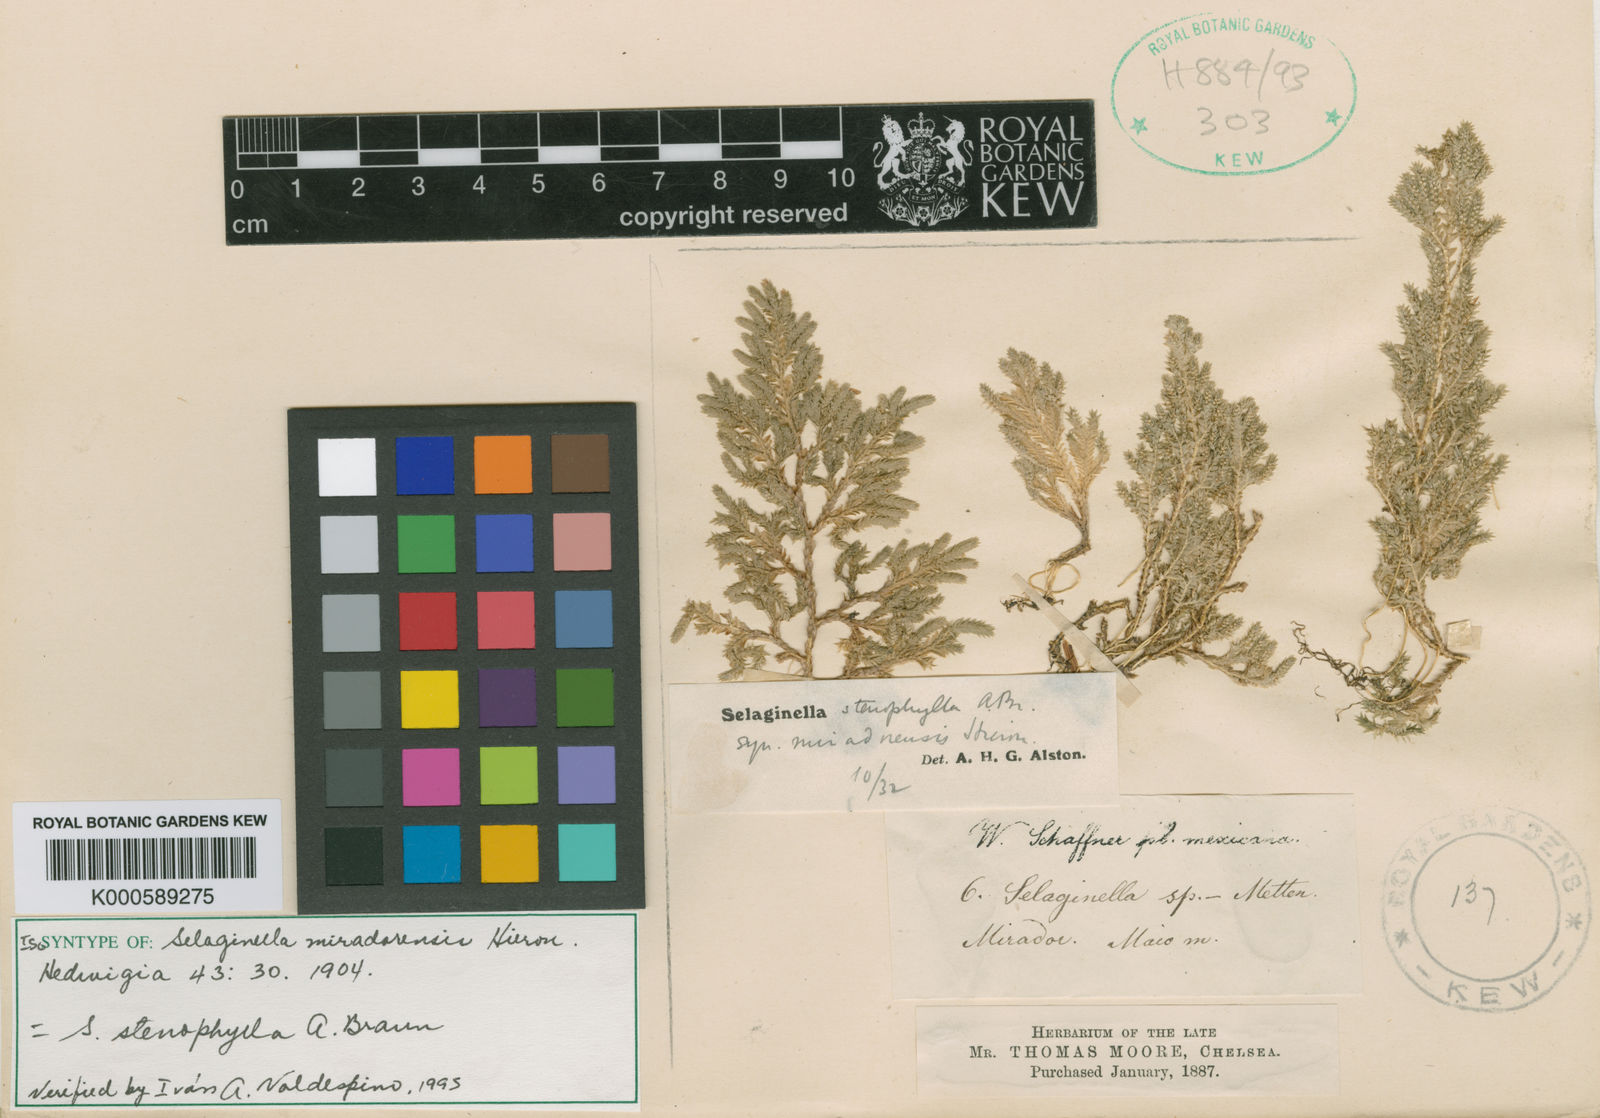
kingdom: Plantae
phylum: Tracheophyta
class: Lycopodiopsida
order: Selaginellales
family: Selaginellaceae
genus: Selaginella
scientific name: Selaginella stenophylla
